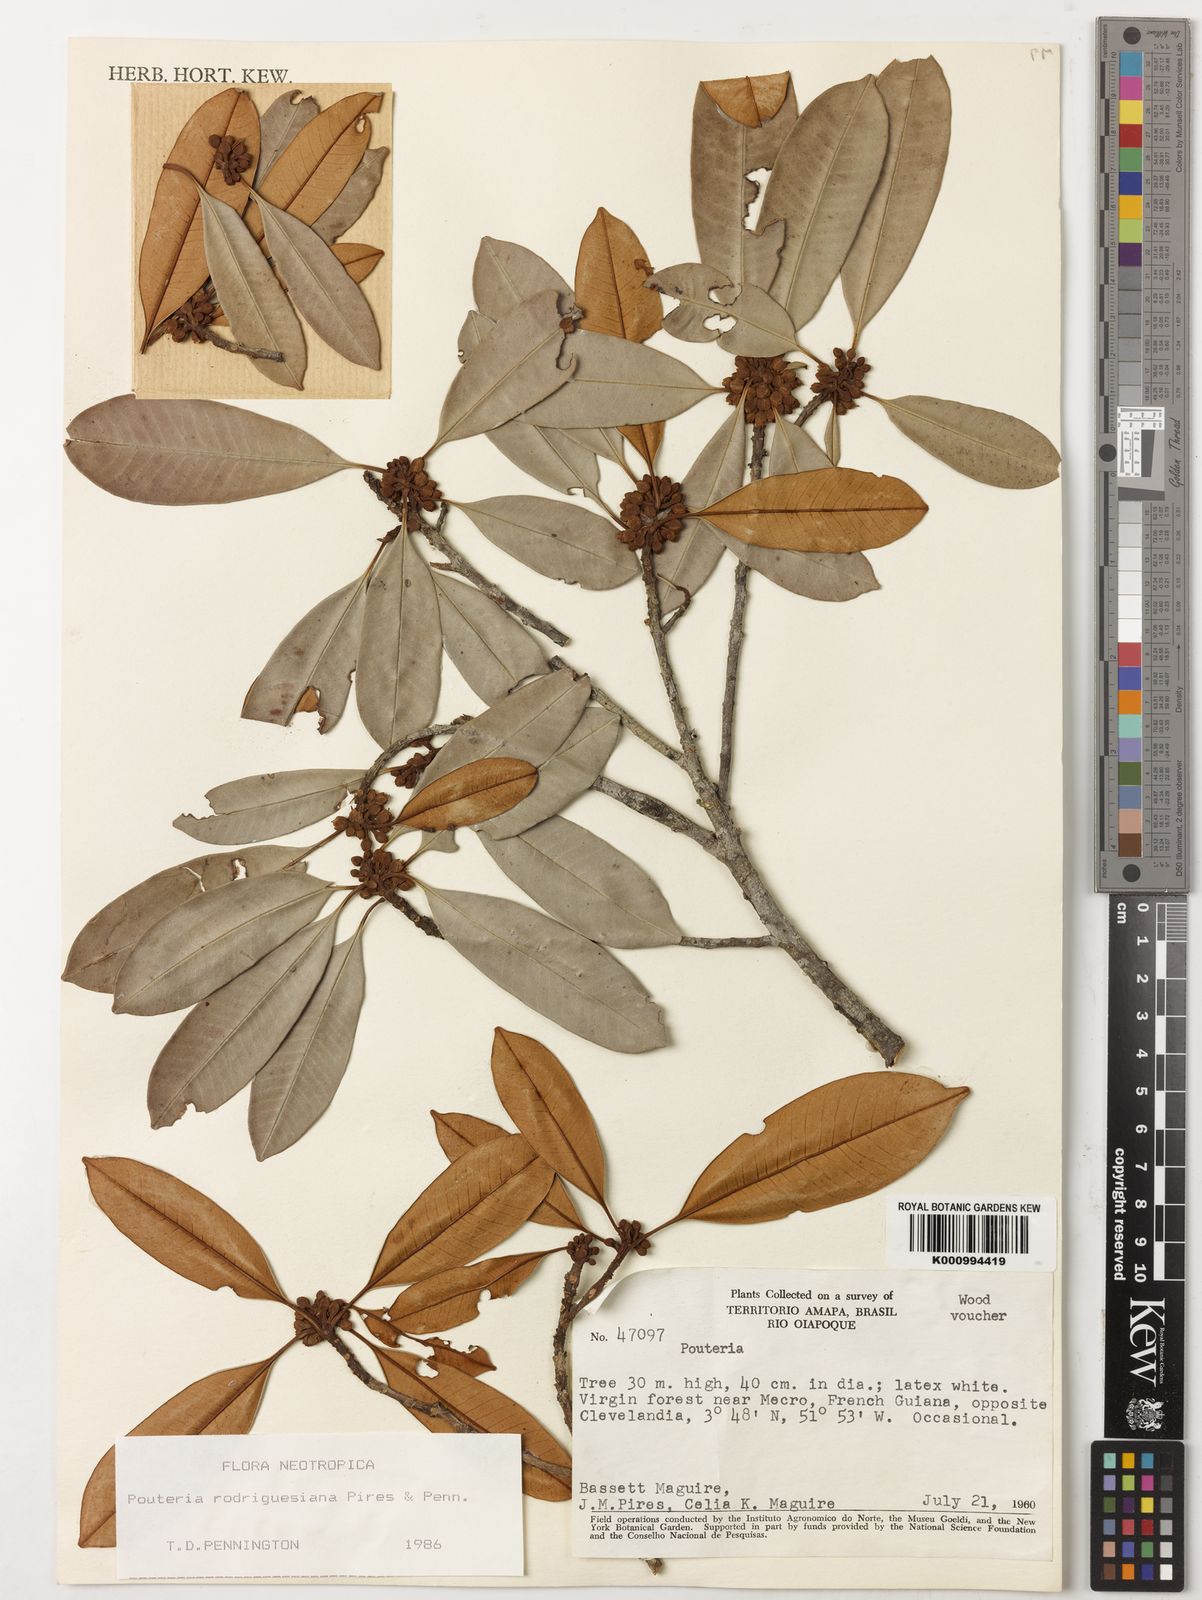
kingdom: Plantae
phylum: Tracheophyta
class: Magnoliopsida
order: Ericales
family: Sapotaceae
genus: Pouteria
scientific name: Pouteria rodriguesiana
